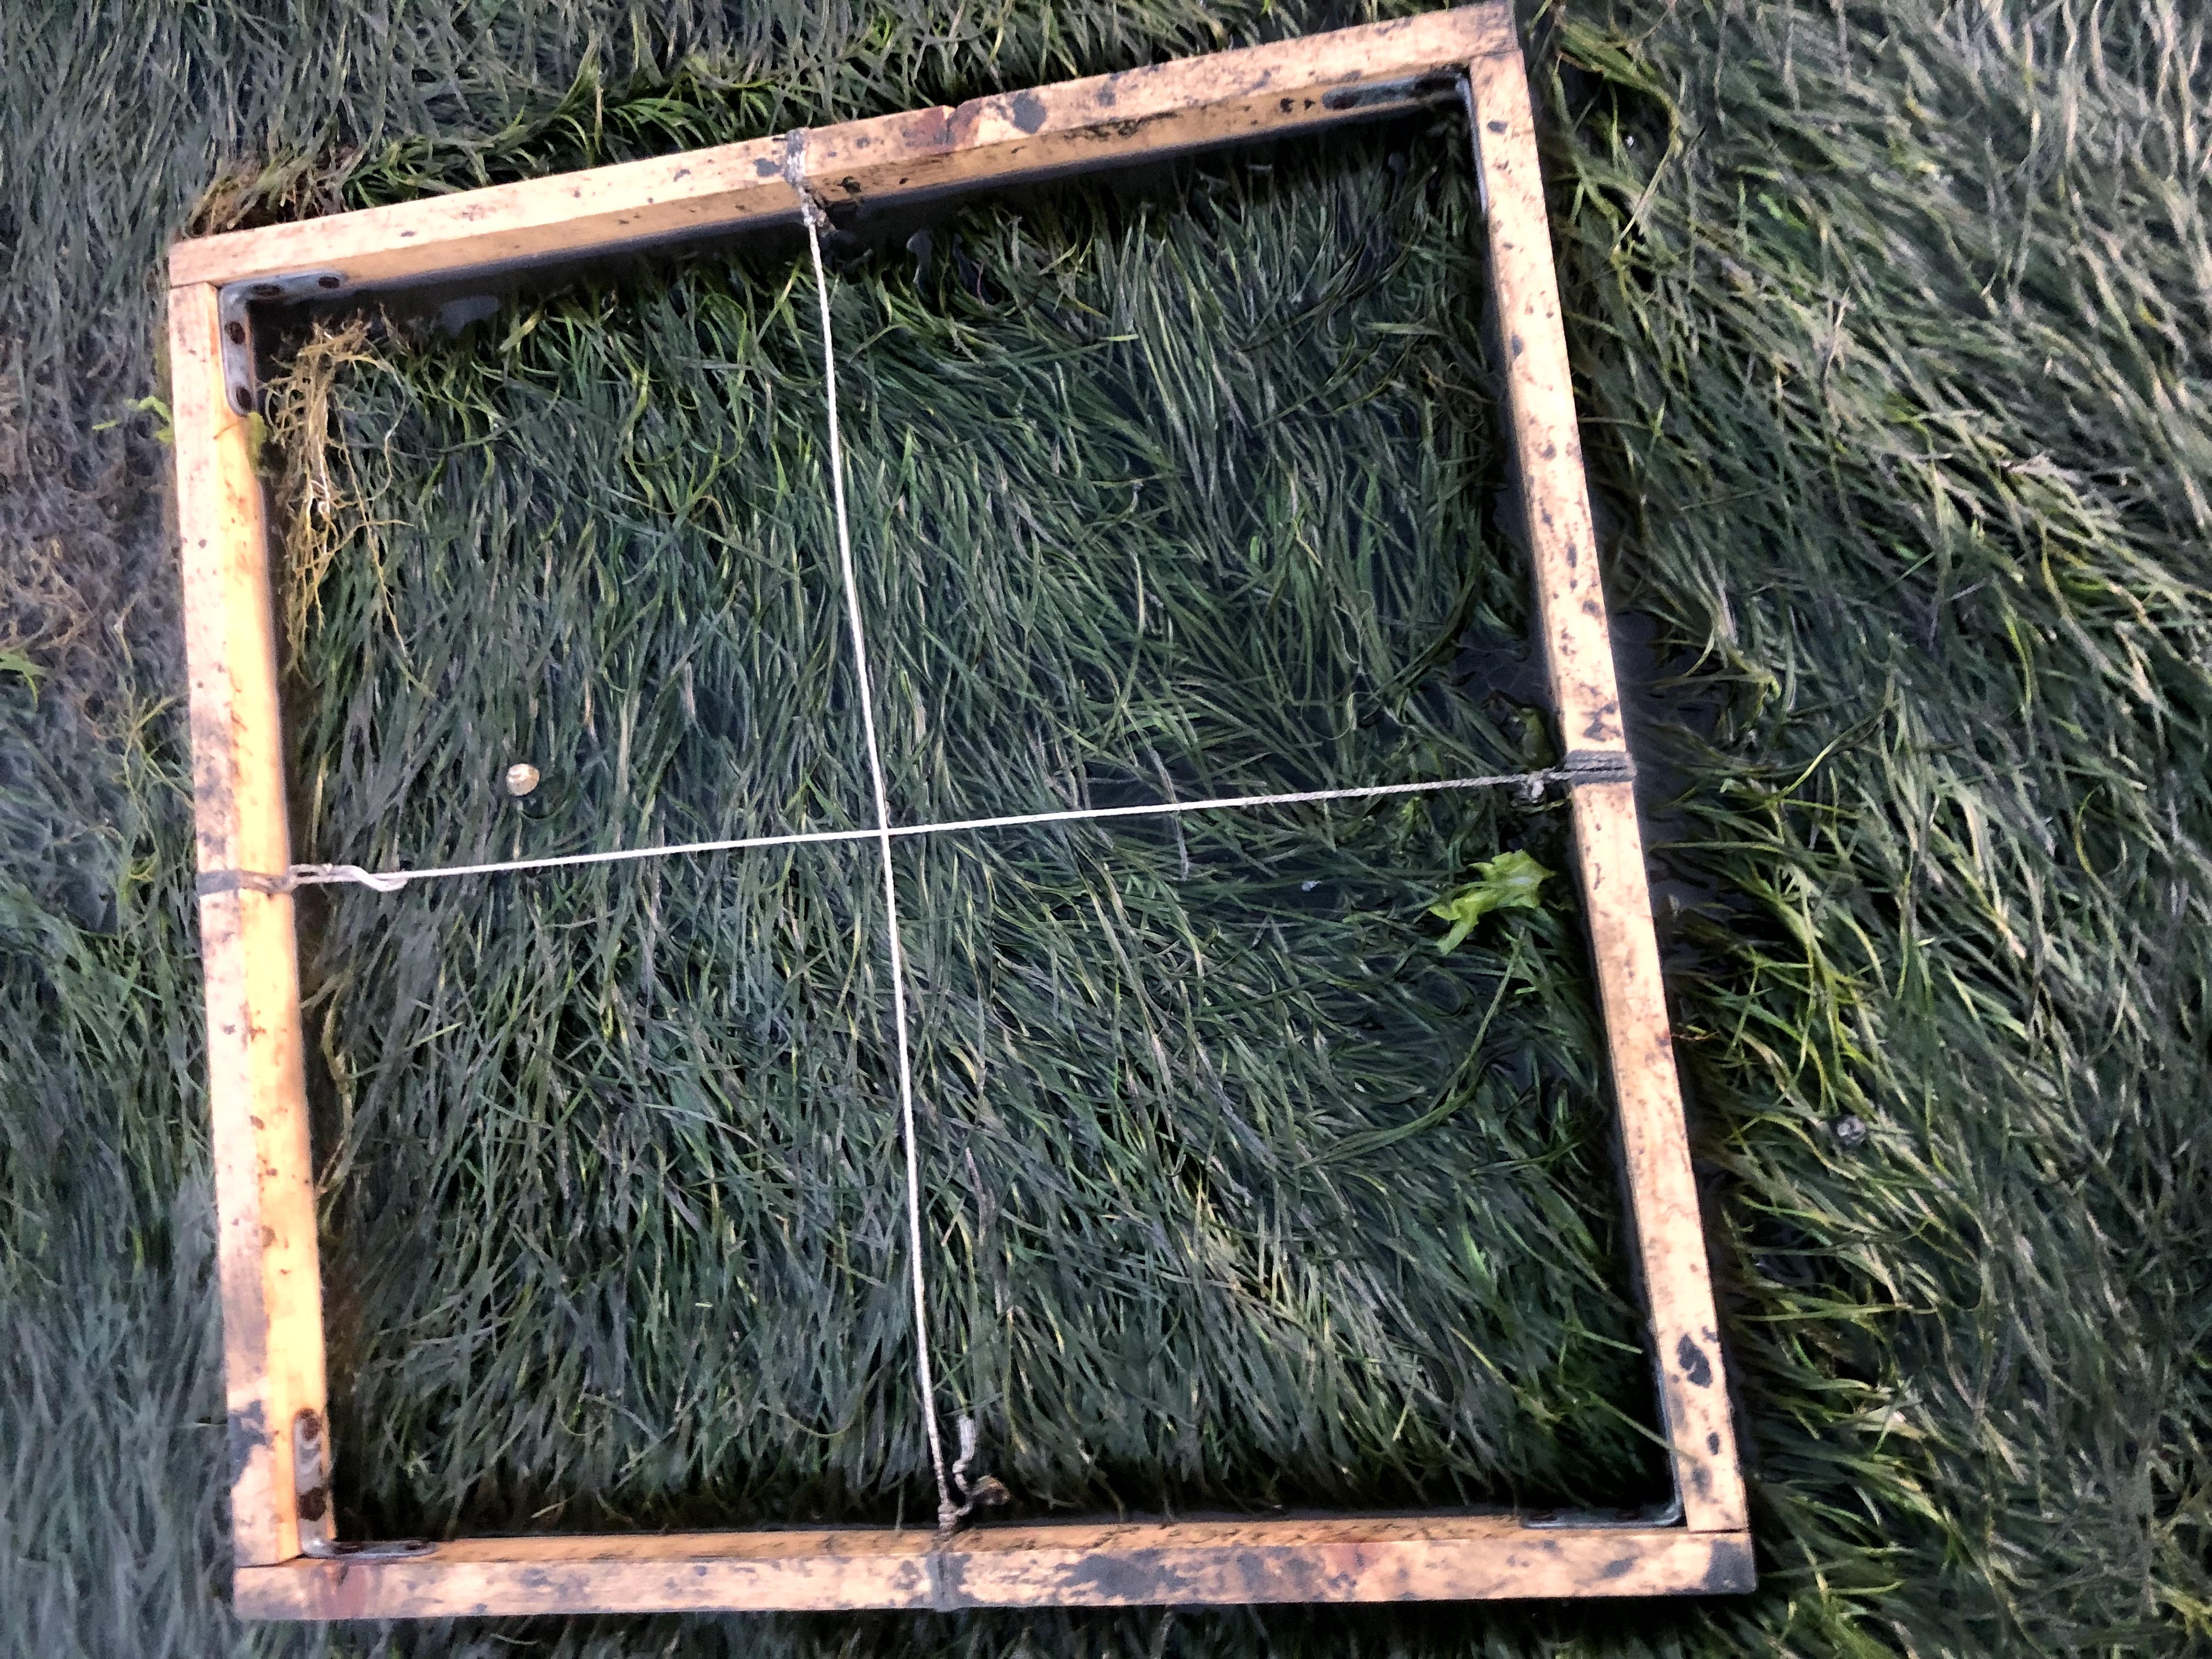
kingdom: Plantae
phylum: Chlorophyta
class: Ulvophyceae
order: Ulvales
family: Ulvaceae
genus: Ulva
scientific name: Ulva
